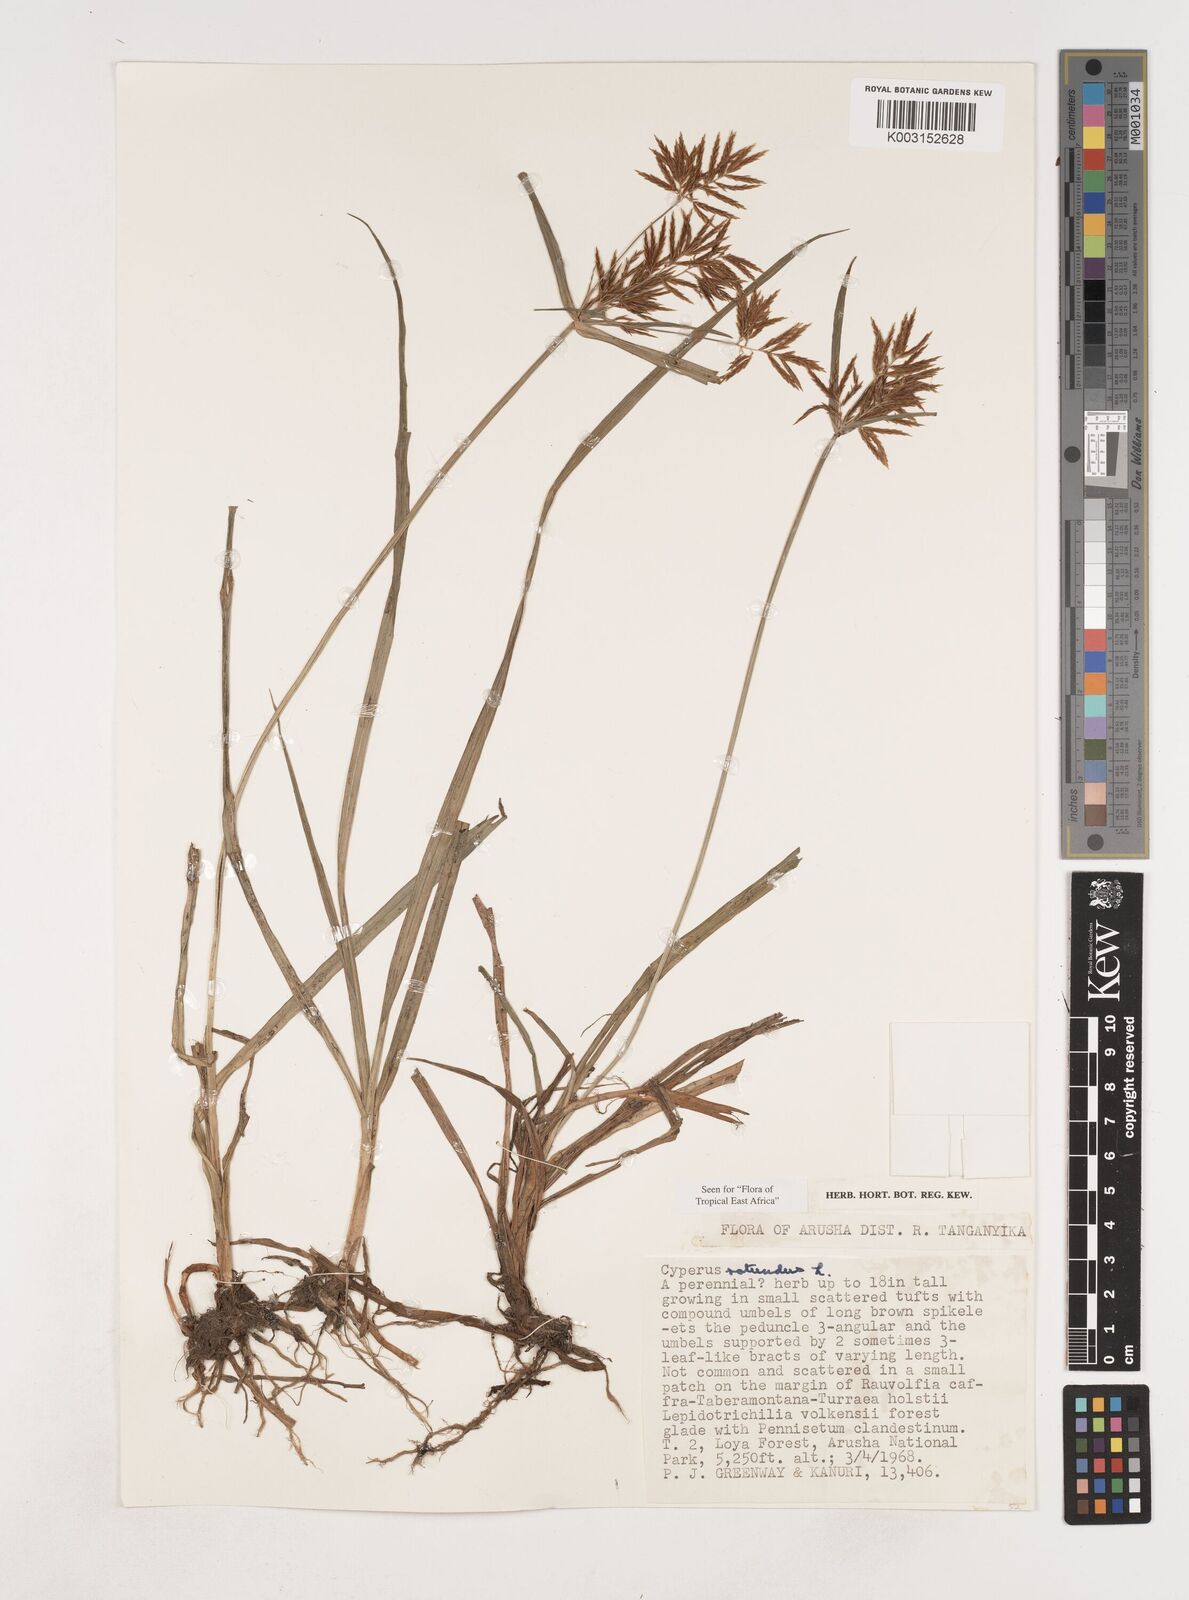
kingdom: Plantae
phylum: Tracheophyta
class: Liliopsida
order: Poales
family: Cyperaceae
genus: Cyperus
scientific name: Cyperus rotundus
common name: Nutgrass
